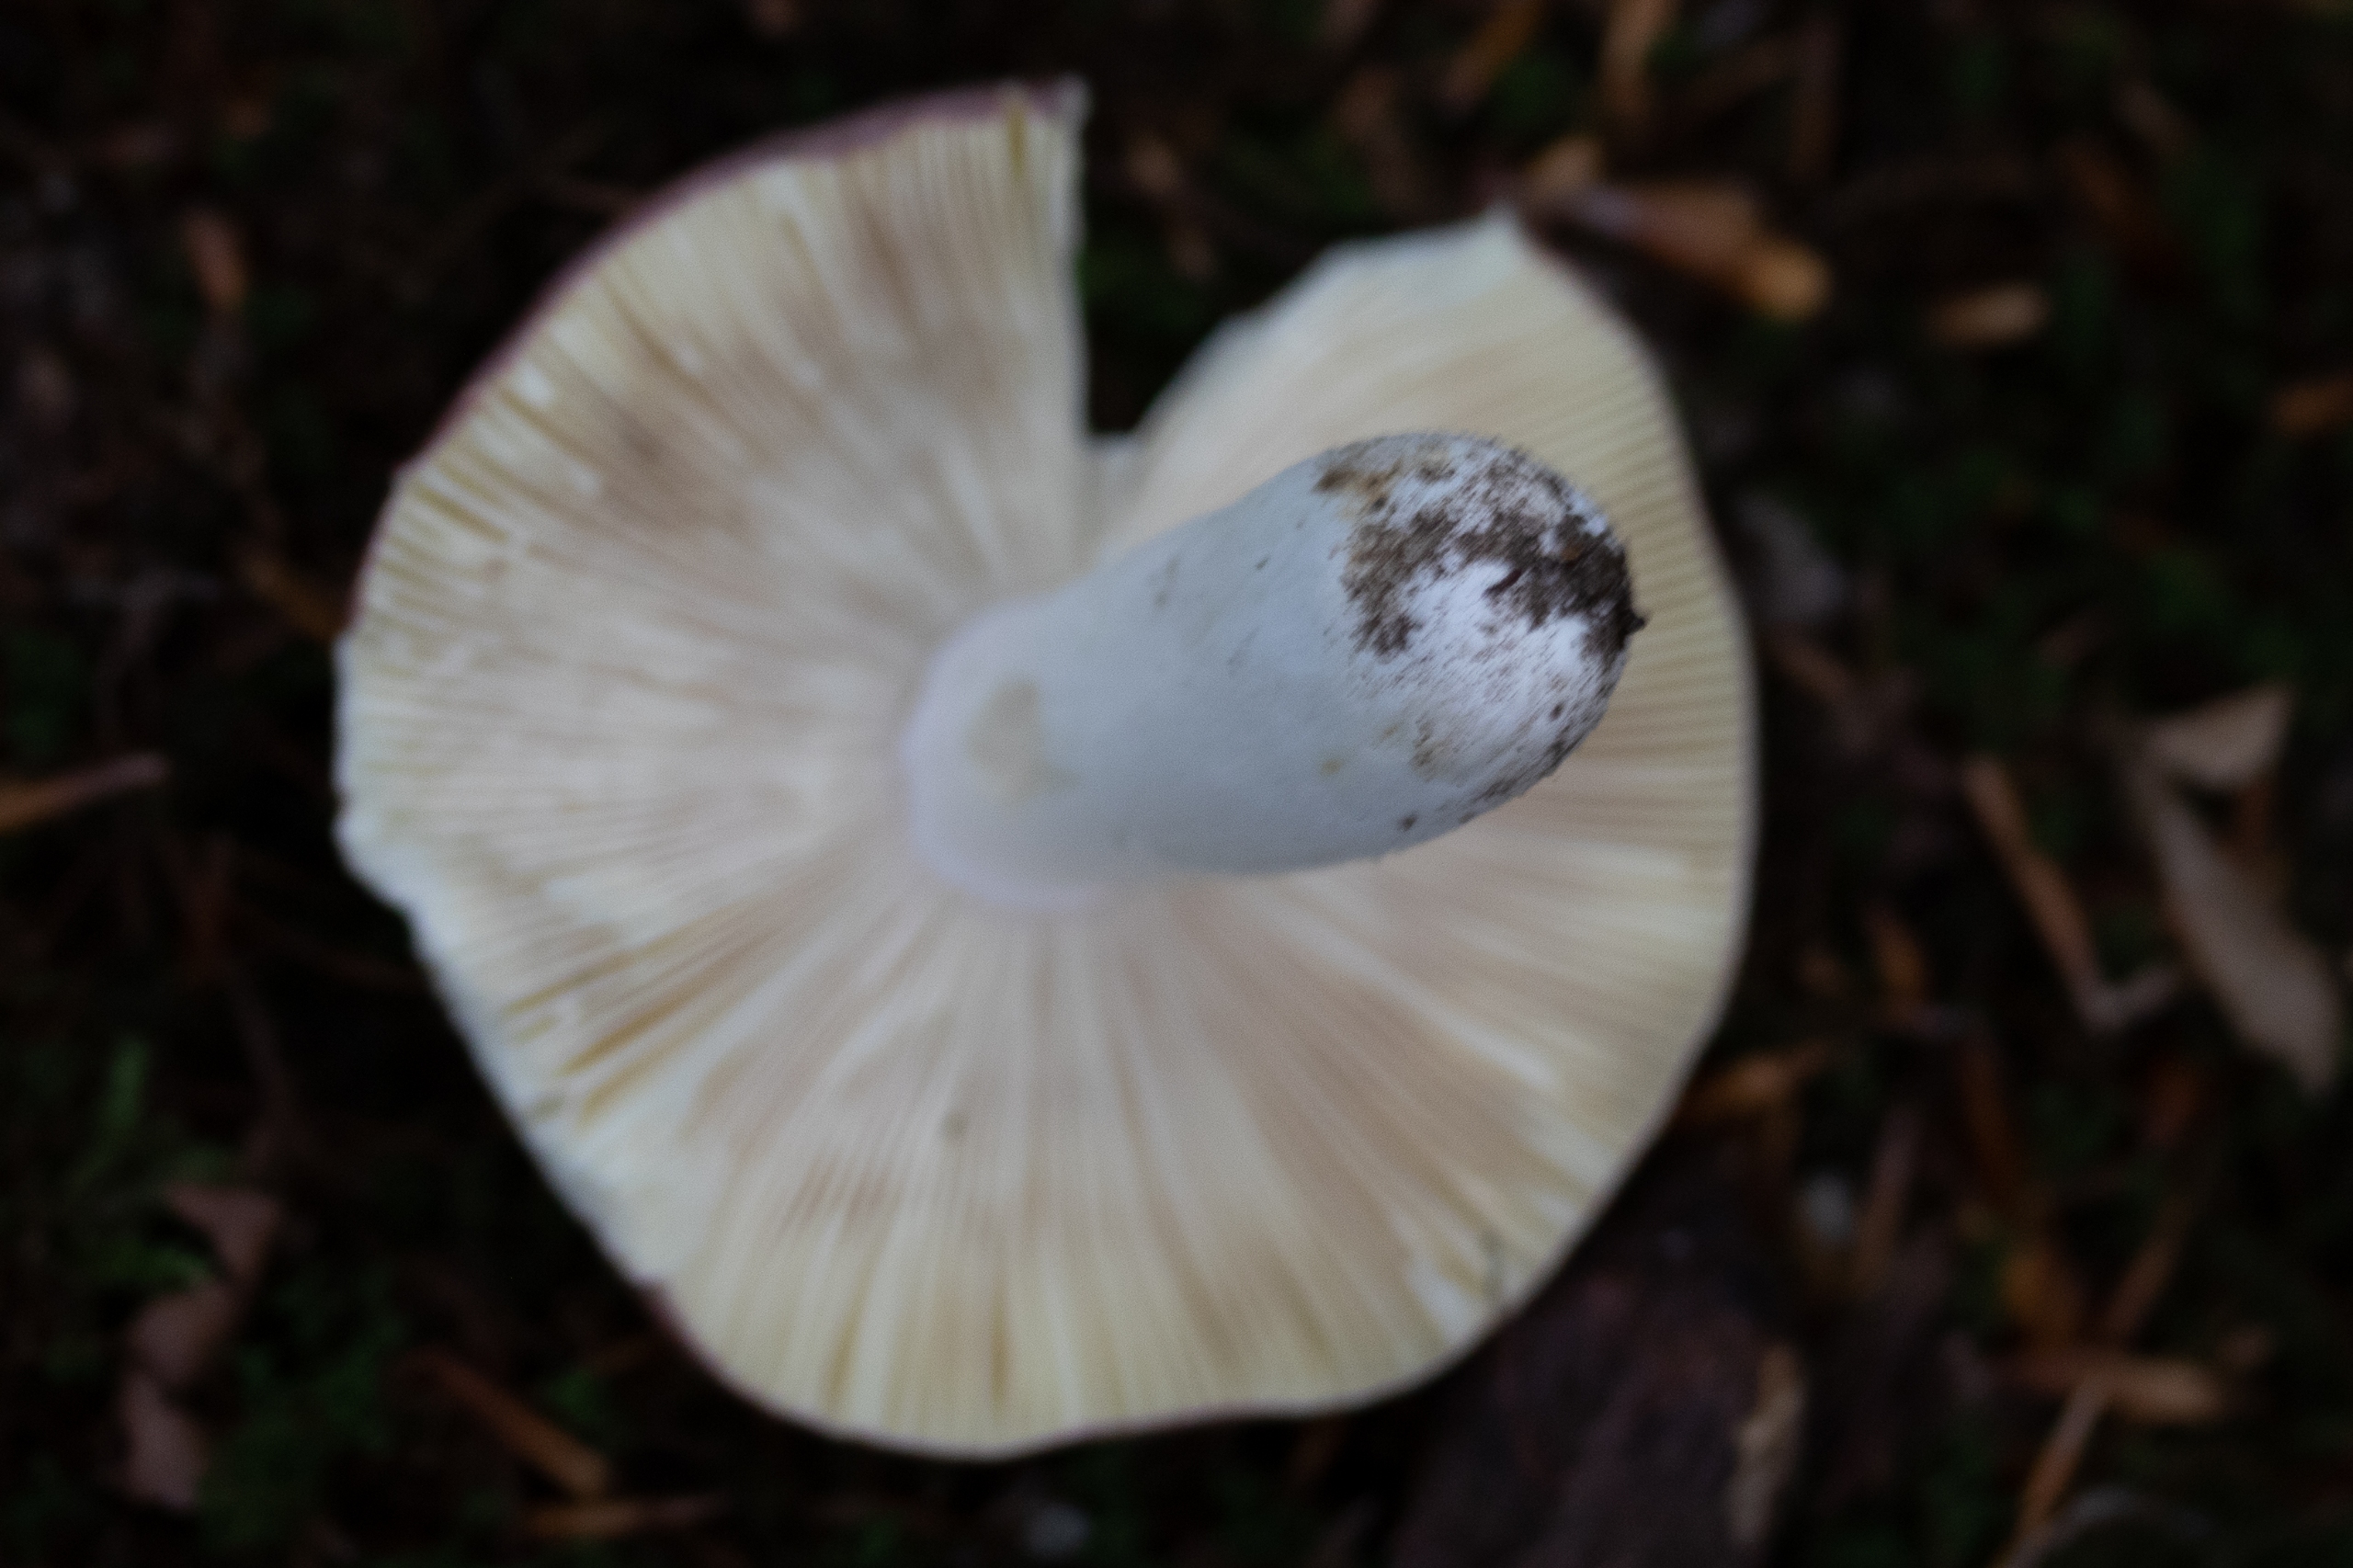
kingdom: Fungi
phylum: Basidiomycota
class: Agaricomycetes
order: Russulales
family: Russulaceae
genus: Russula
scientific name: Russula
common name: Skørhat
